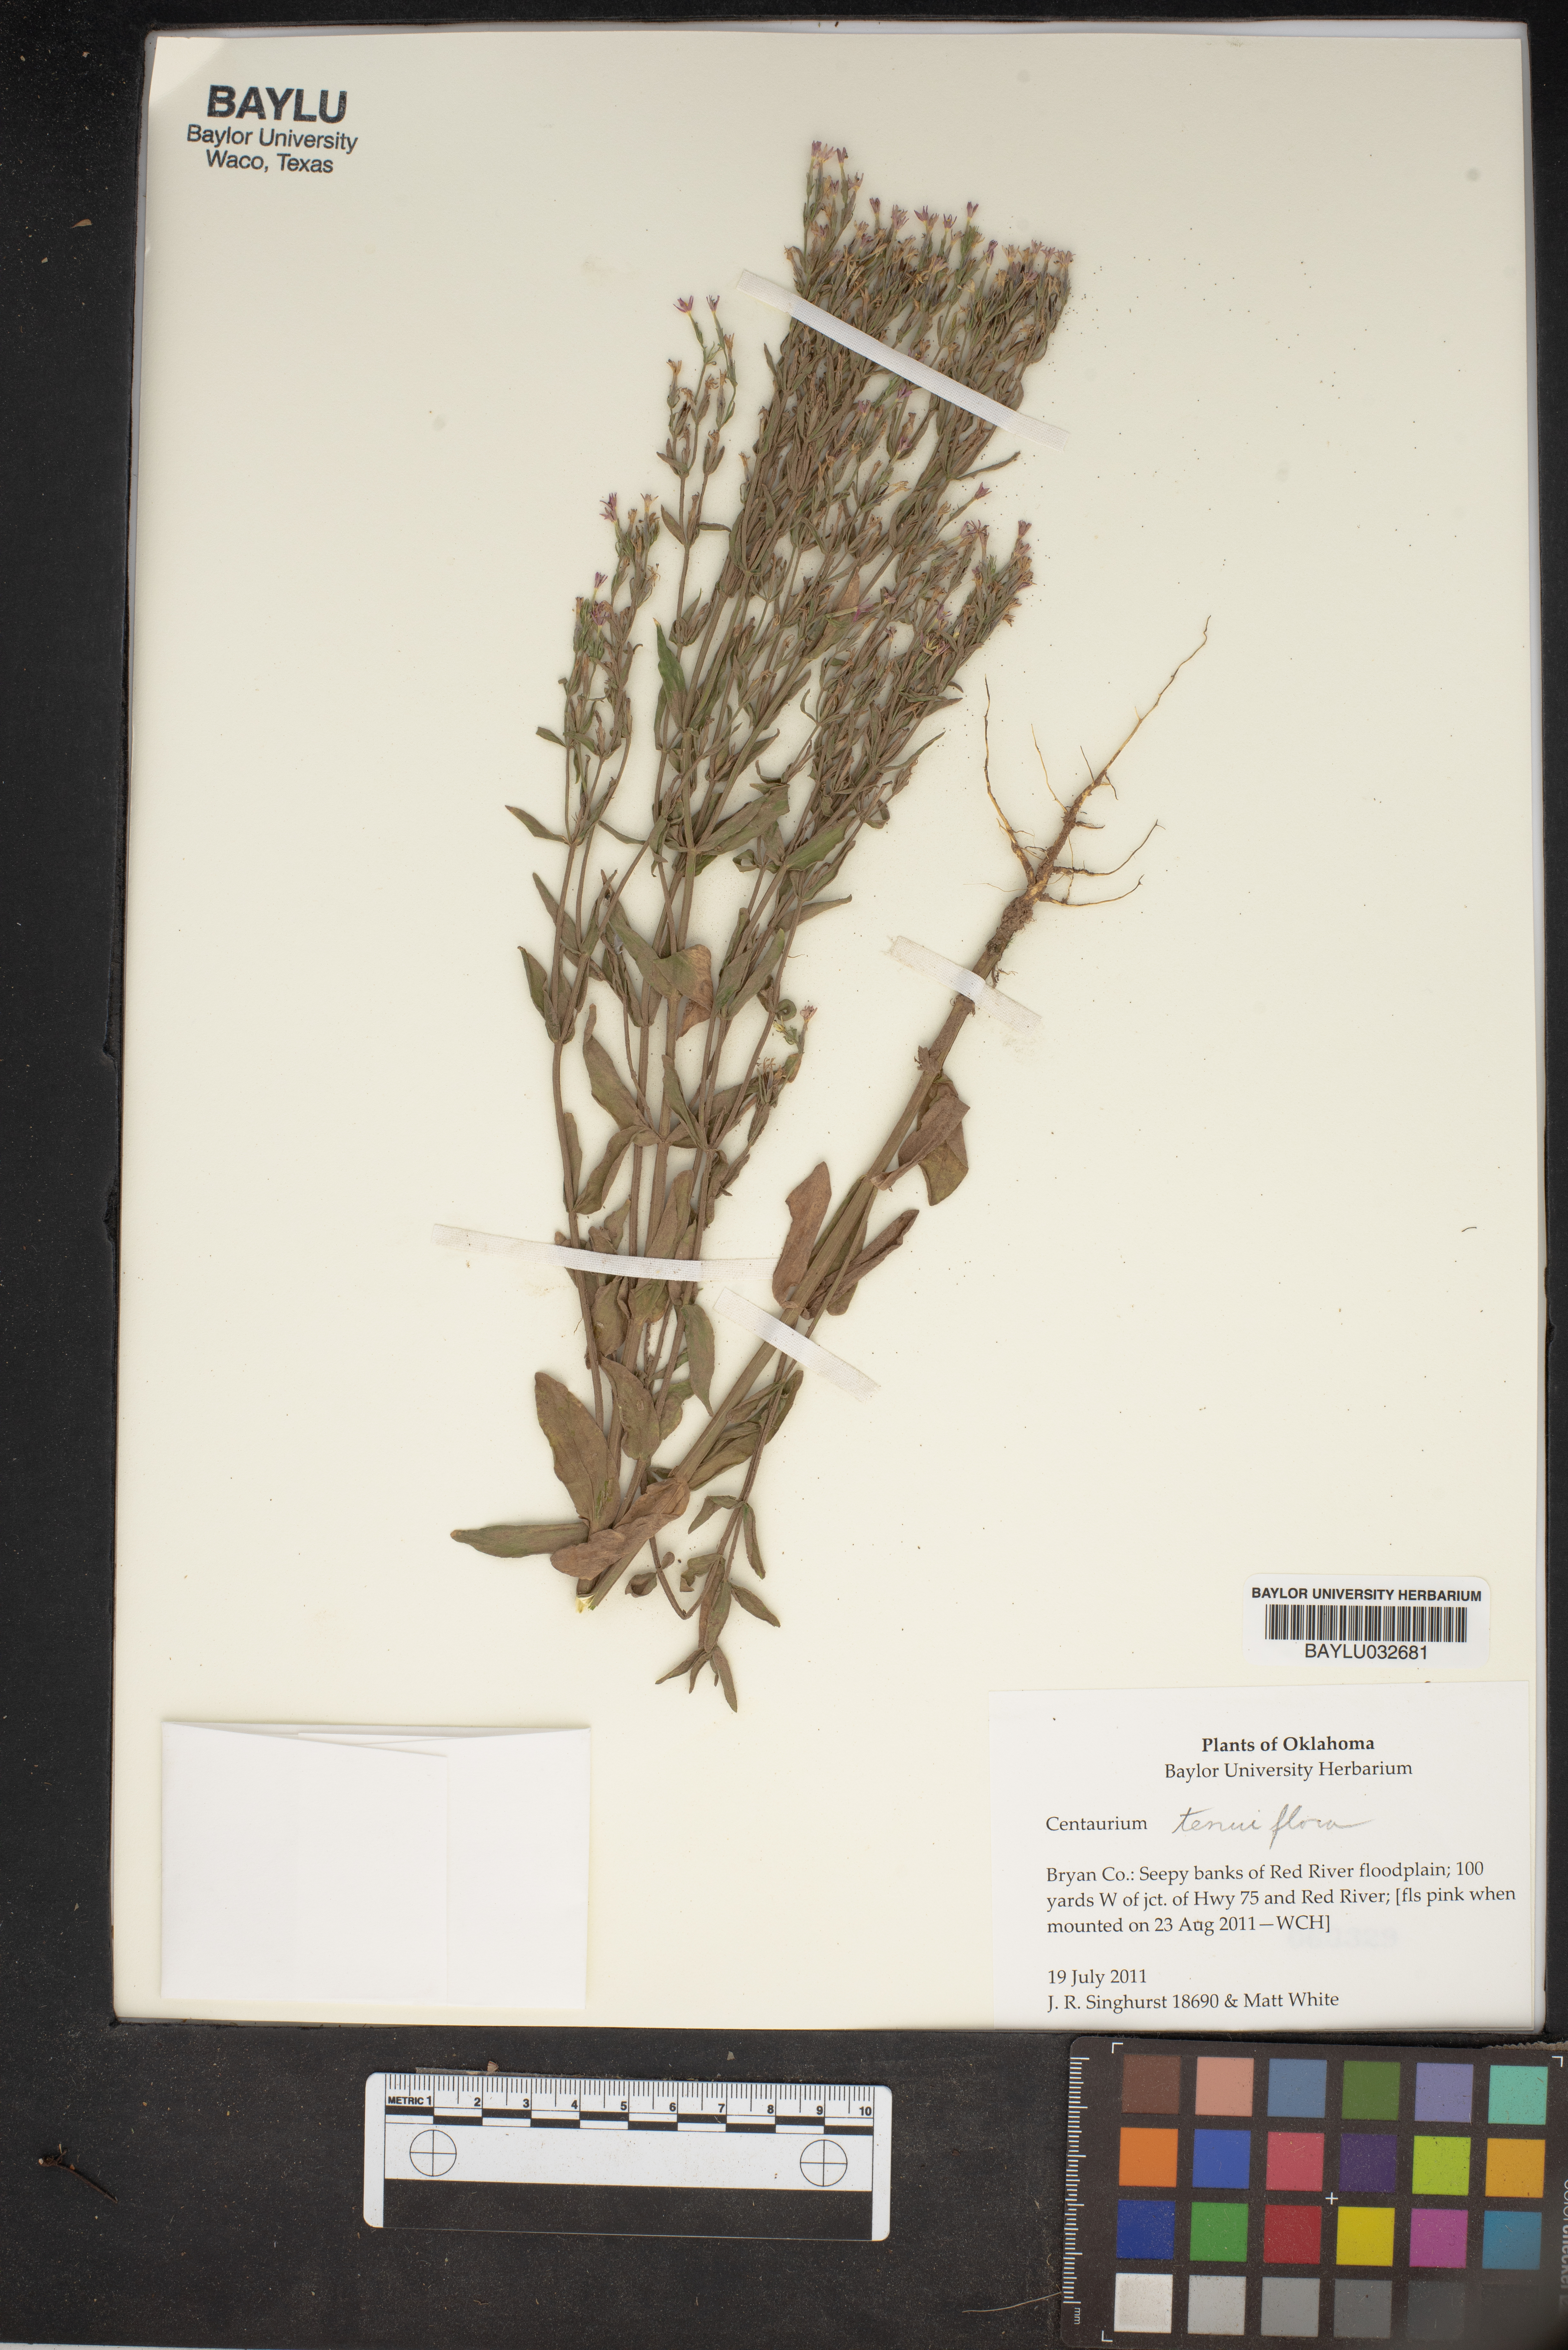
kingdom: Plantae
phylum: Tracheophyta
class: Magnoliopsida
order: Gentianales
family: Gentianaceae
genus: Centaurium
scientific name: Centaurium tenuiflorum
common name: Slender centaury
